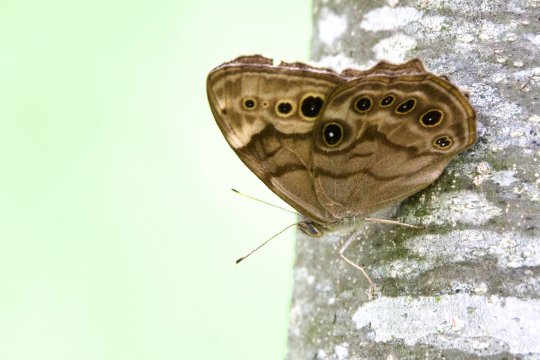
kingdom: Animalia
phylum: Arthropoda
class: Insecta
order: Lepidoptera
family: Nymphalidae
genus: Lethe
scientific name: Lethe anthedon
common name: Northern Pearly-Eye
